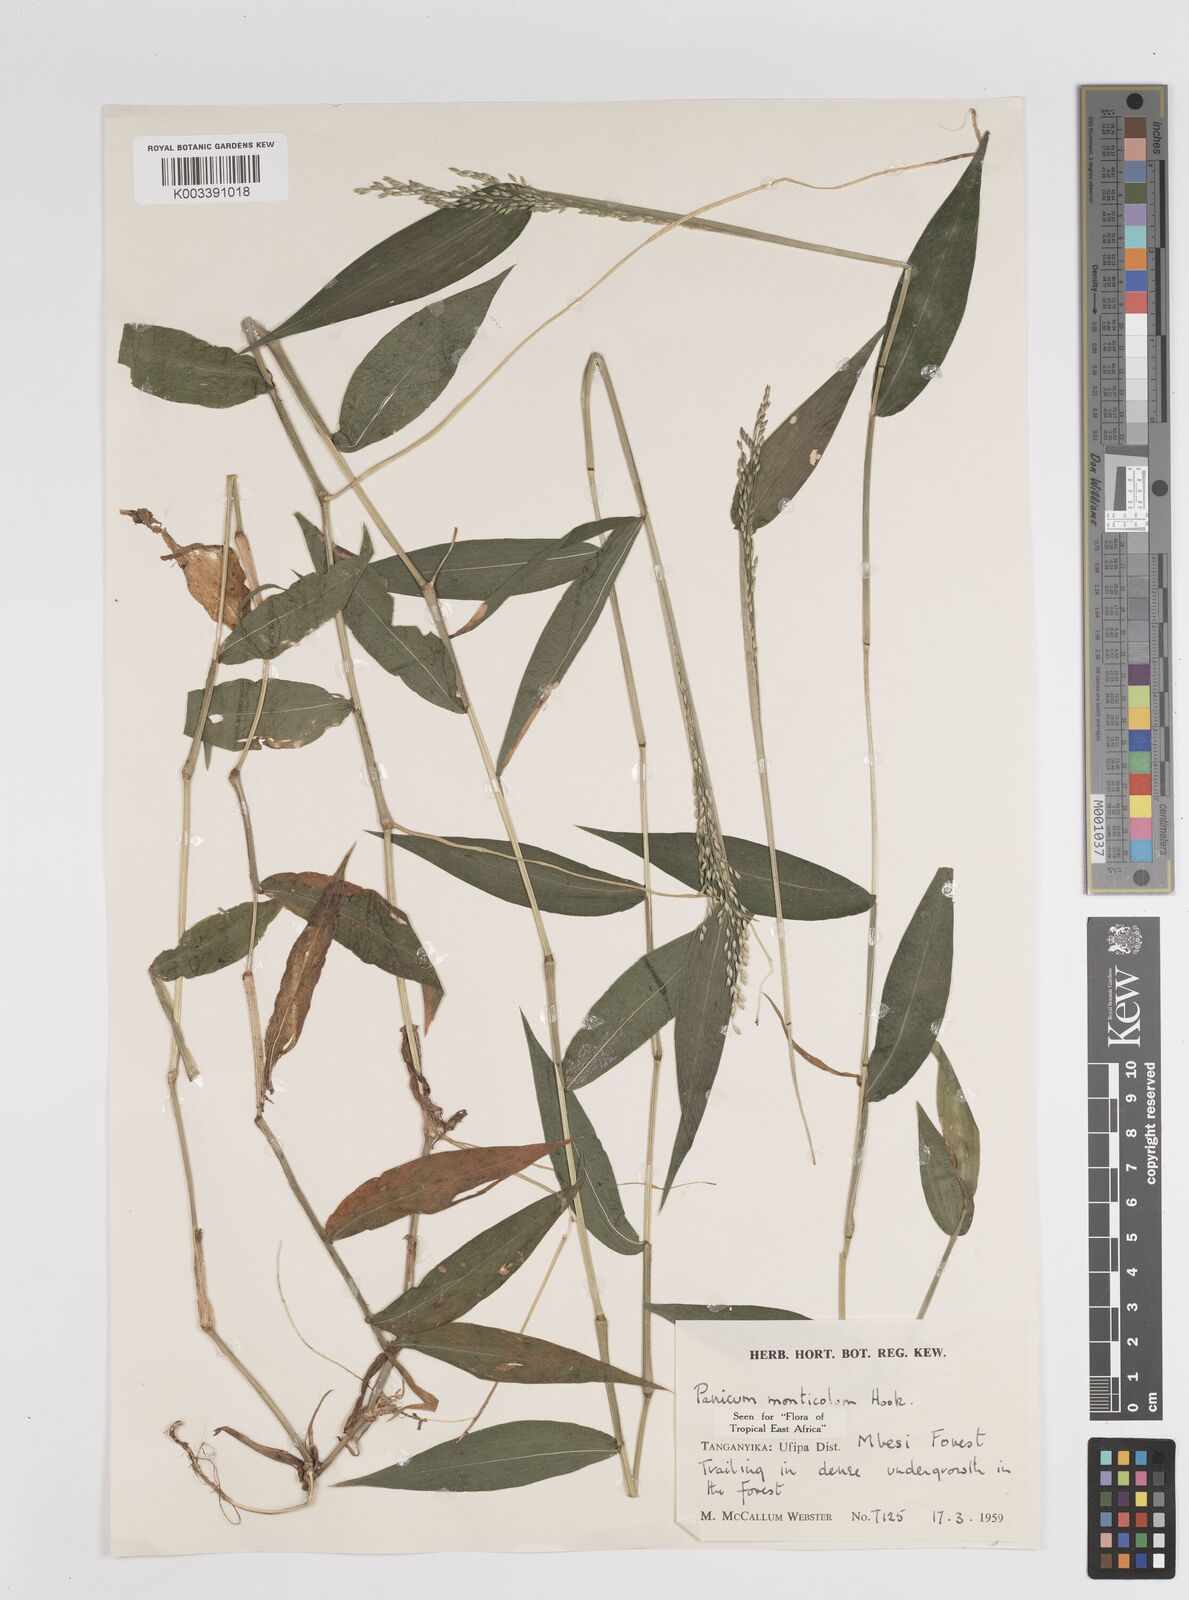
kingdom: Plantae
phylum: Tracheophyta
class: Liliopsida
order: Poales
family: Poaceae
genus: Panicum
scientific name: Panicum monticola
